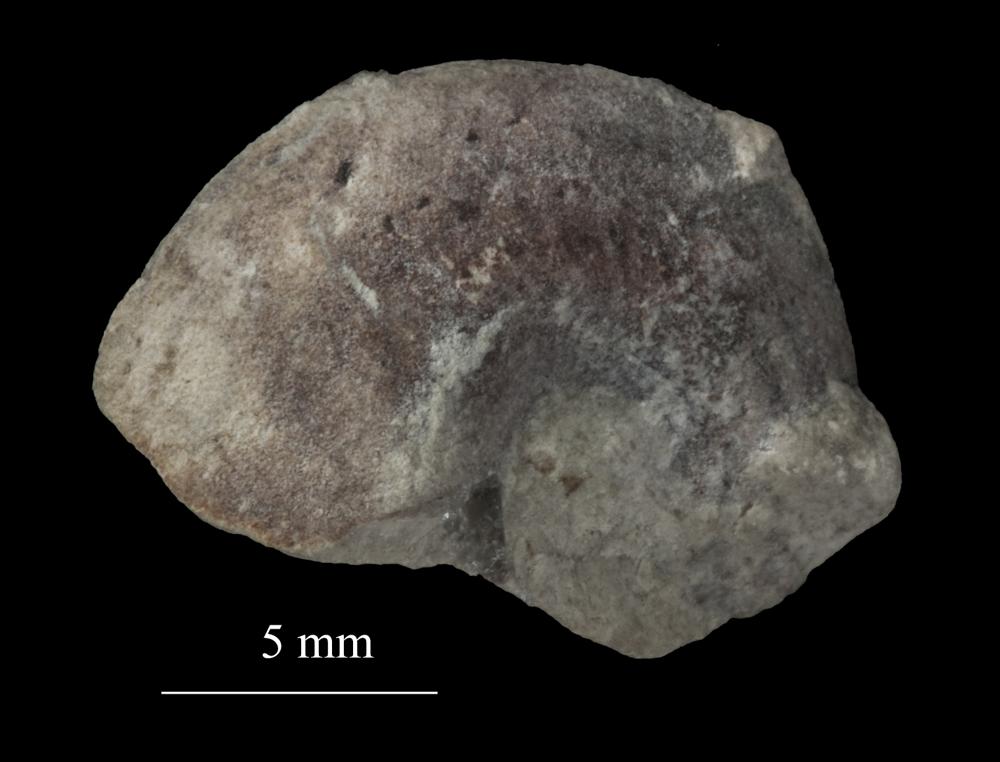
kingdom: Animalia
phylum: Mollusca
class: Gastropoda
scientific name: Gastropoda
